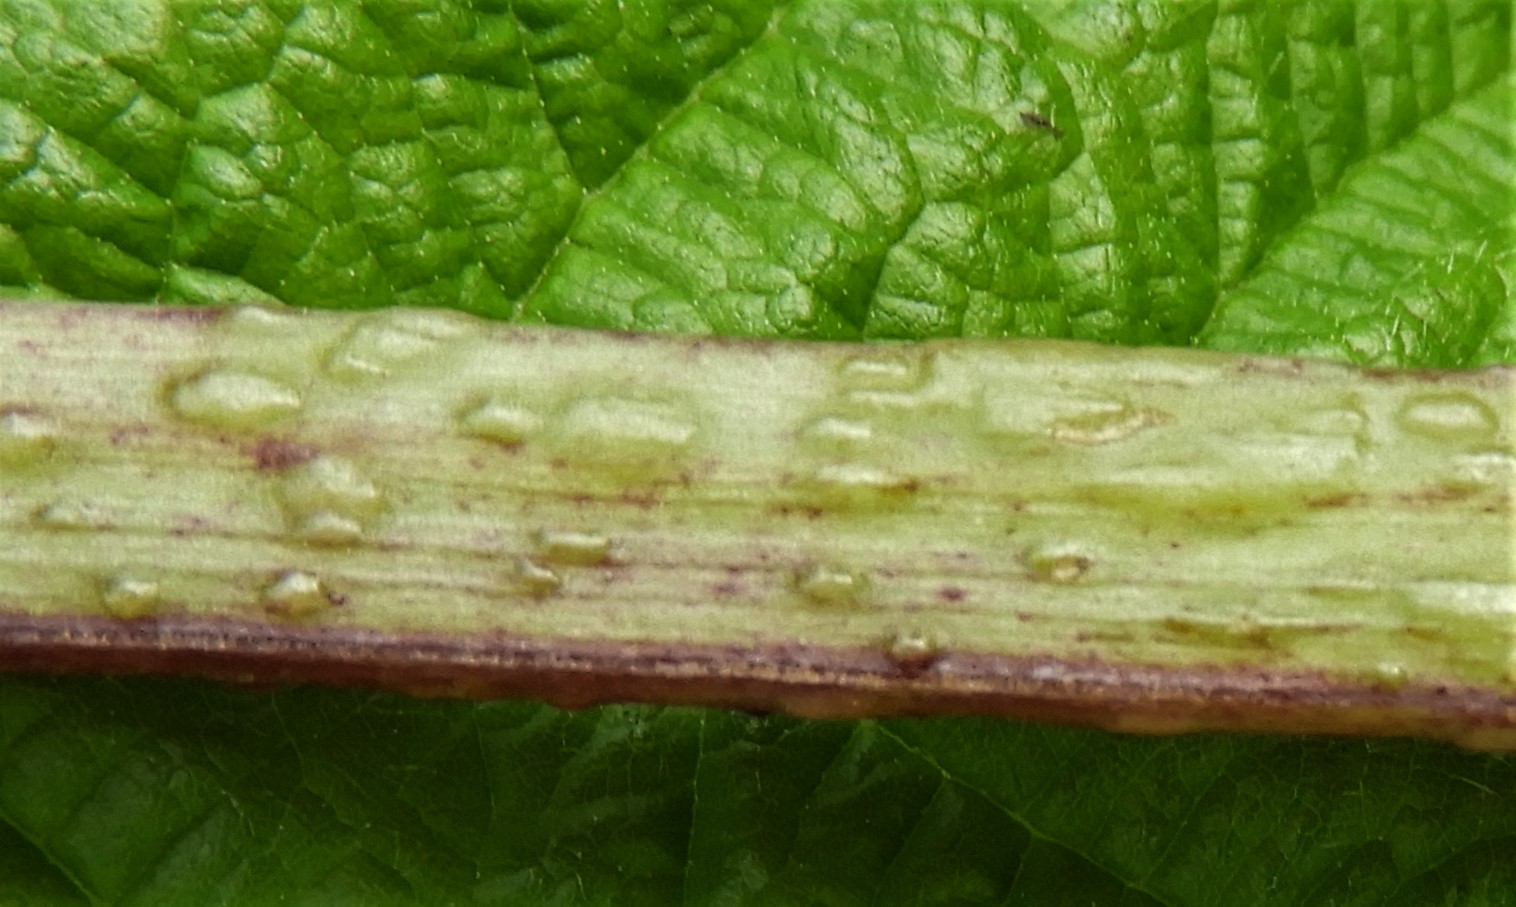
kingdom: Fungi
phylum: Ascomycota
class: Taphrinomycetes
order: Taphrinales
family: Taphrinaceae
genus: Protomyces
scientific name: Protomyces macrosporus
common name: skvalderkål-vablesæk
